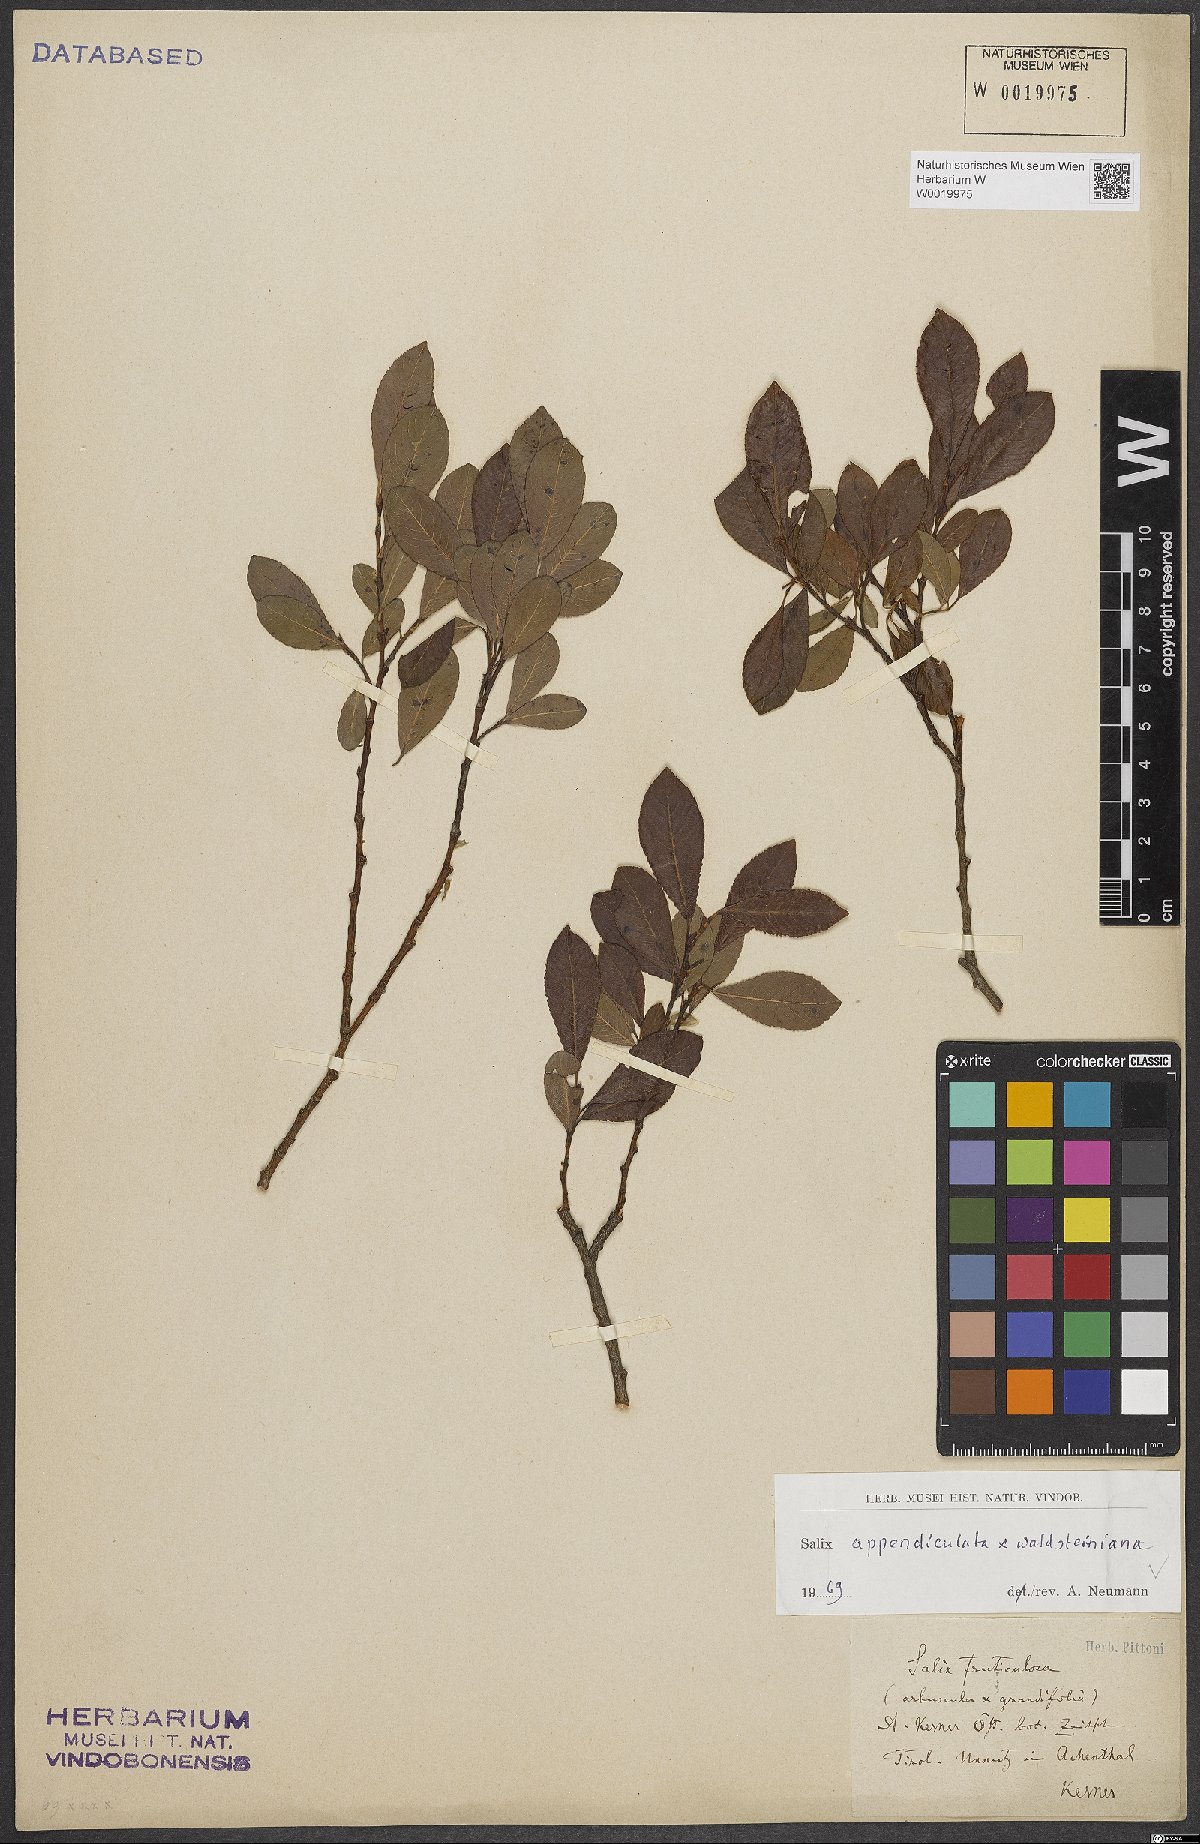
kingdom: Plantae
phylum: Tracheophyta
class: Magnoliopsida
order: Malpighiales
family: Salicaceae
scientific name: Salicaceae
